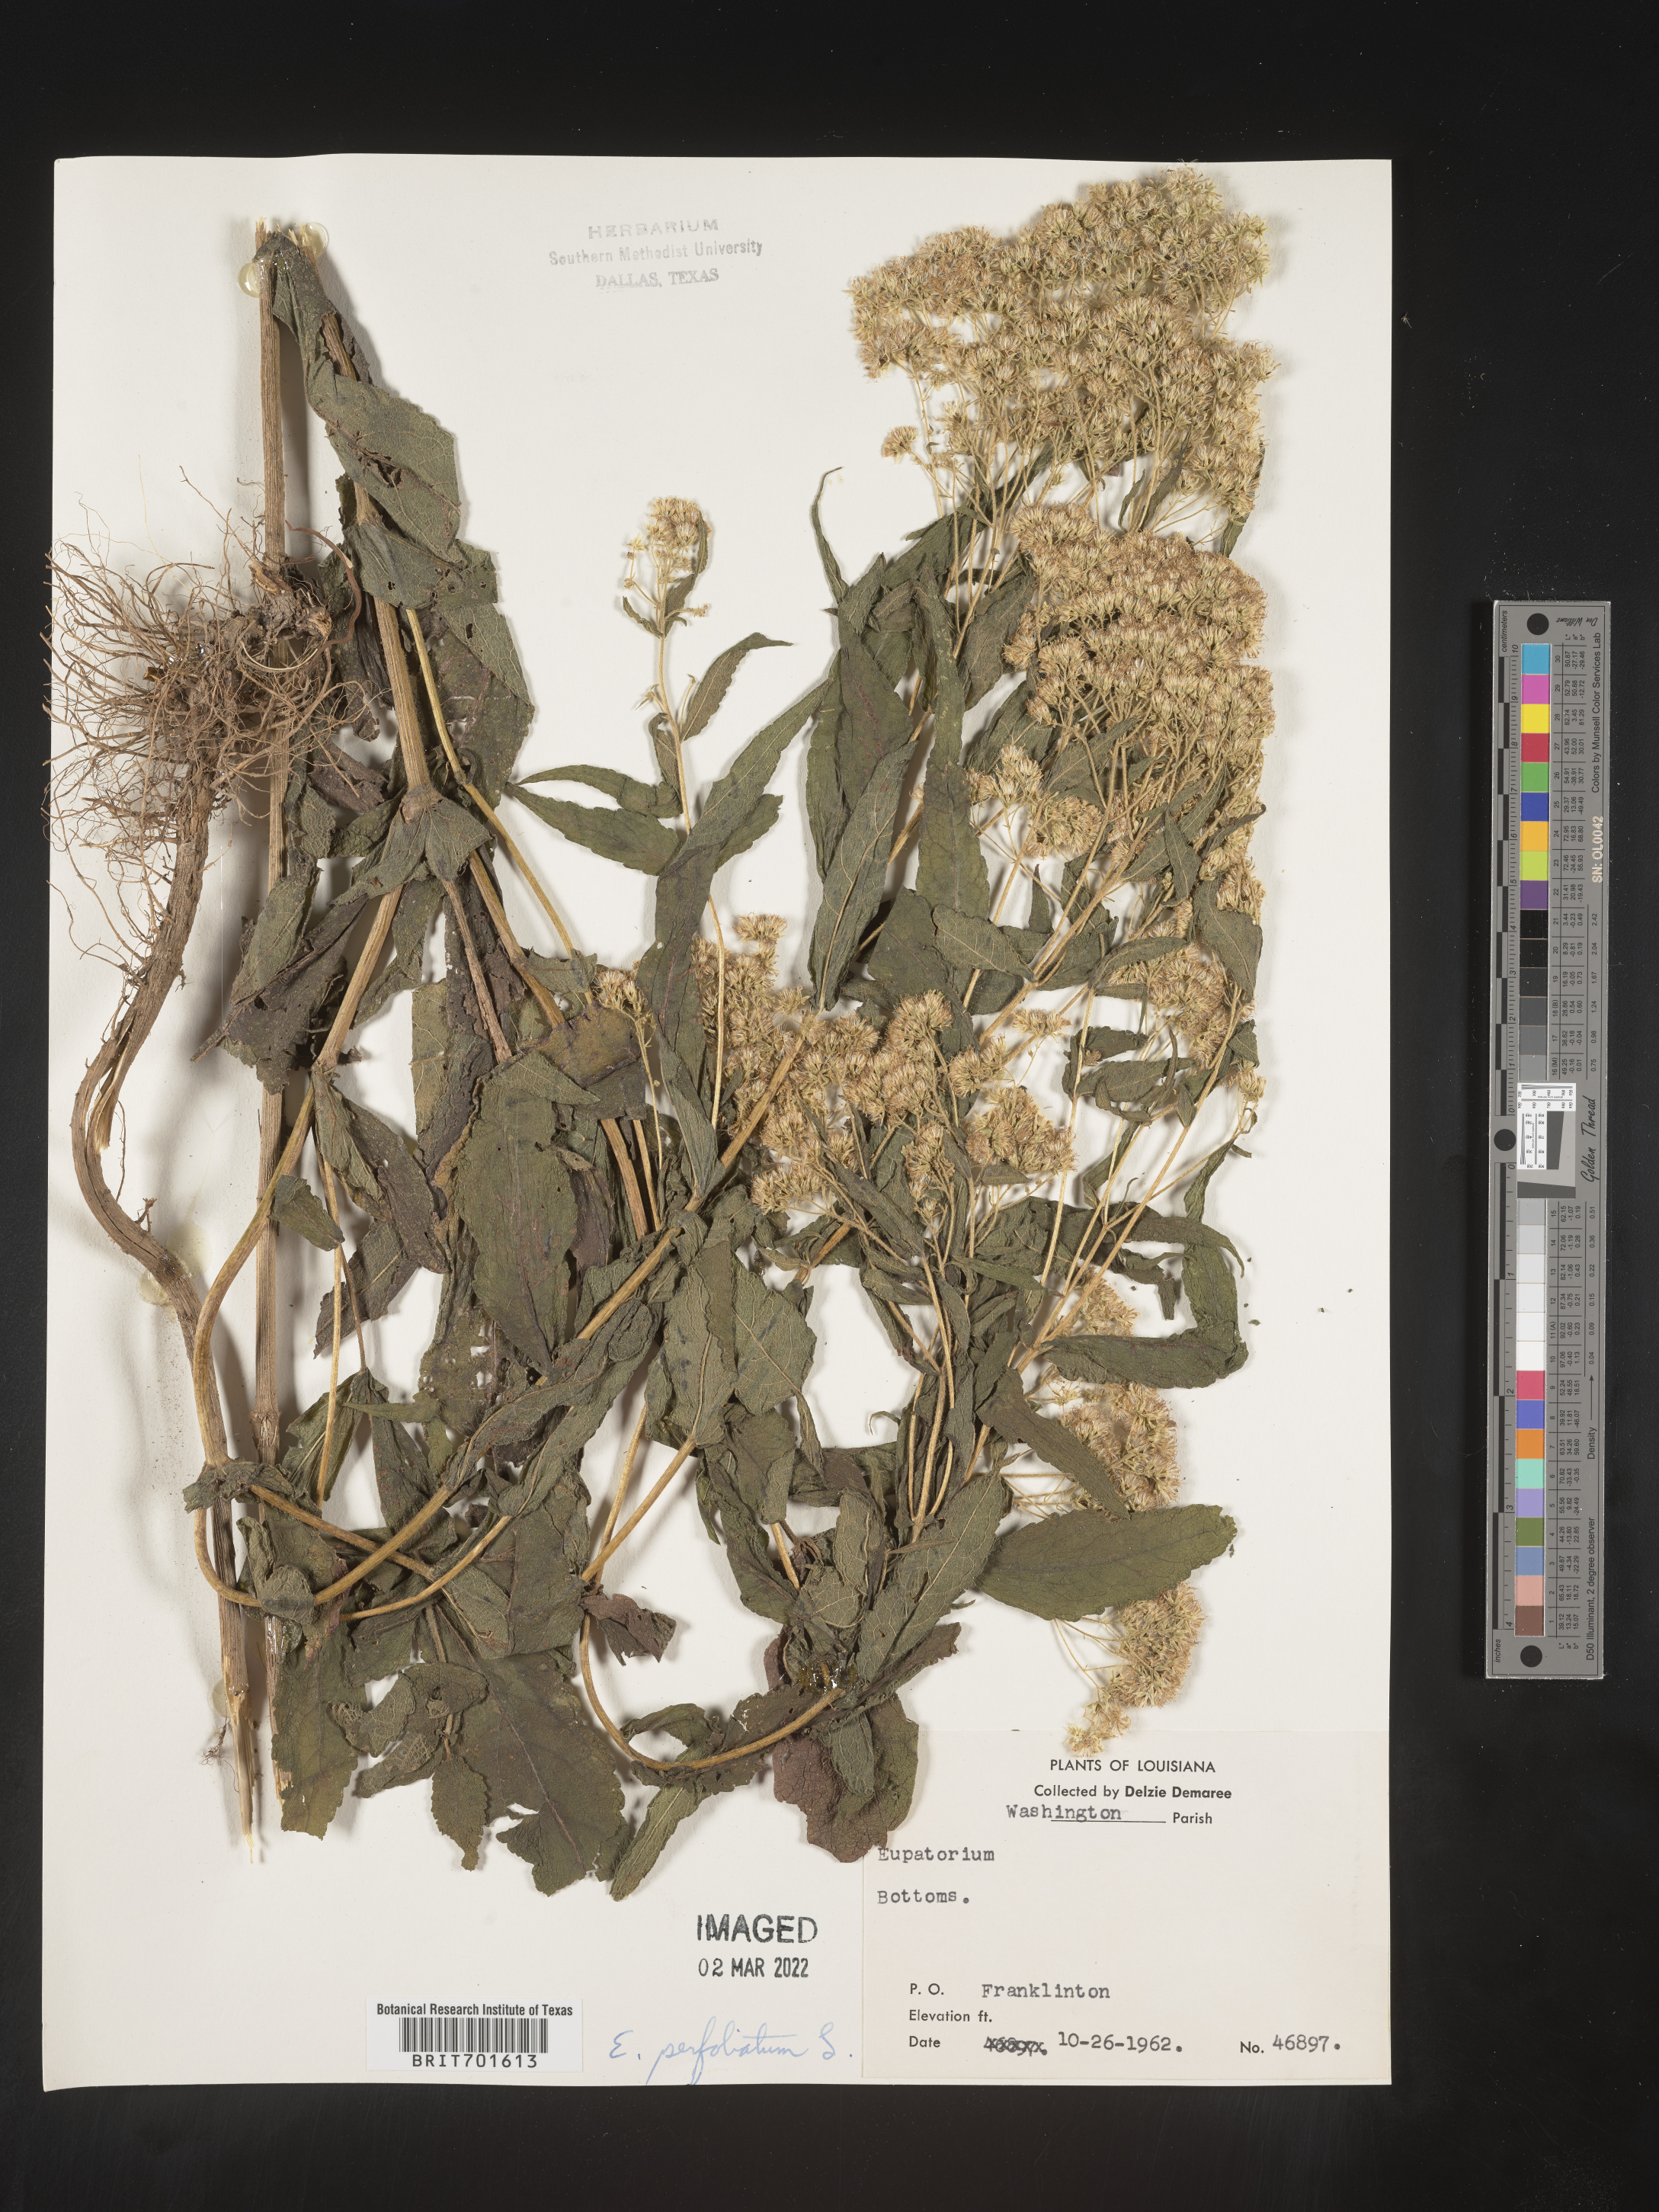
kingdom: Plantae
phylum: Tracheophyta
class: Magnoliopsida
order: Asterales
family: Asteraceae
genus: Eupatorium
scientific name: Eupatorium perfoliatum
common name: Boneset
